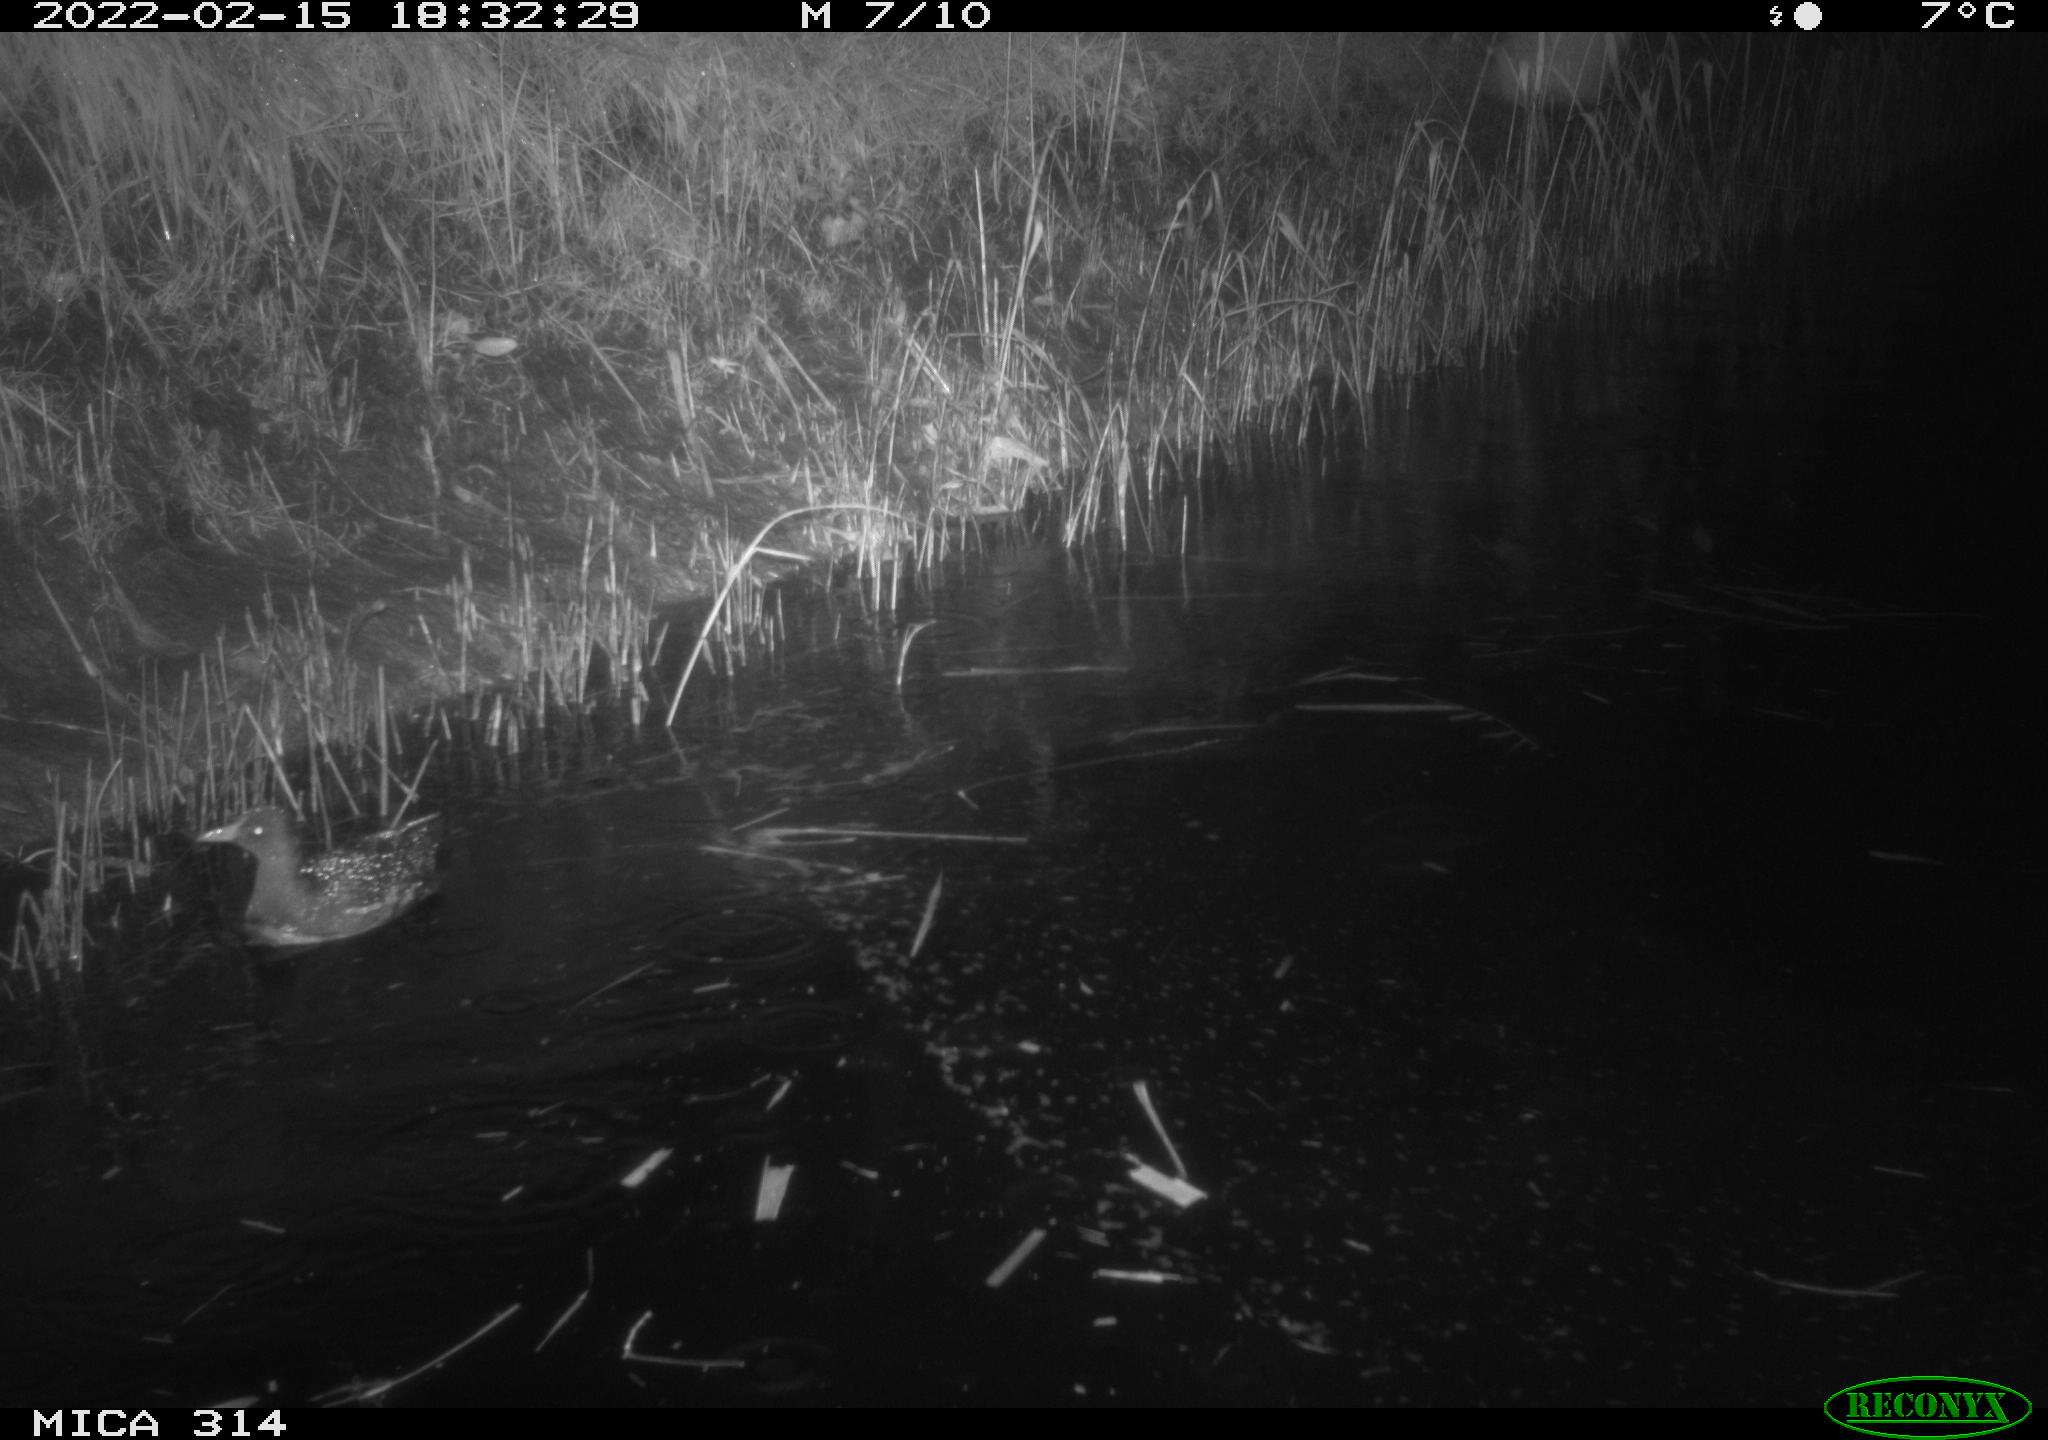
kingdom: Animalia
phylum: Chordata
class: Aves
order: Gruiformes
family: Rallidae
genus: Gallinula
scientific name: Gallinula chloropus
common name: Common moorhen
